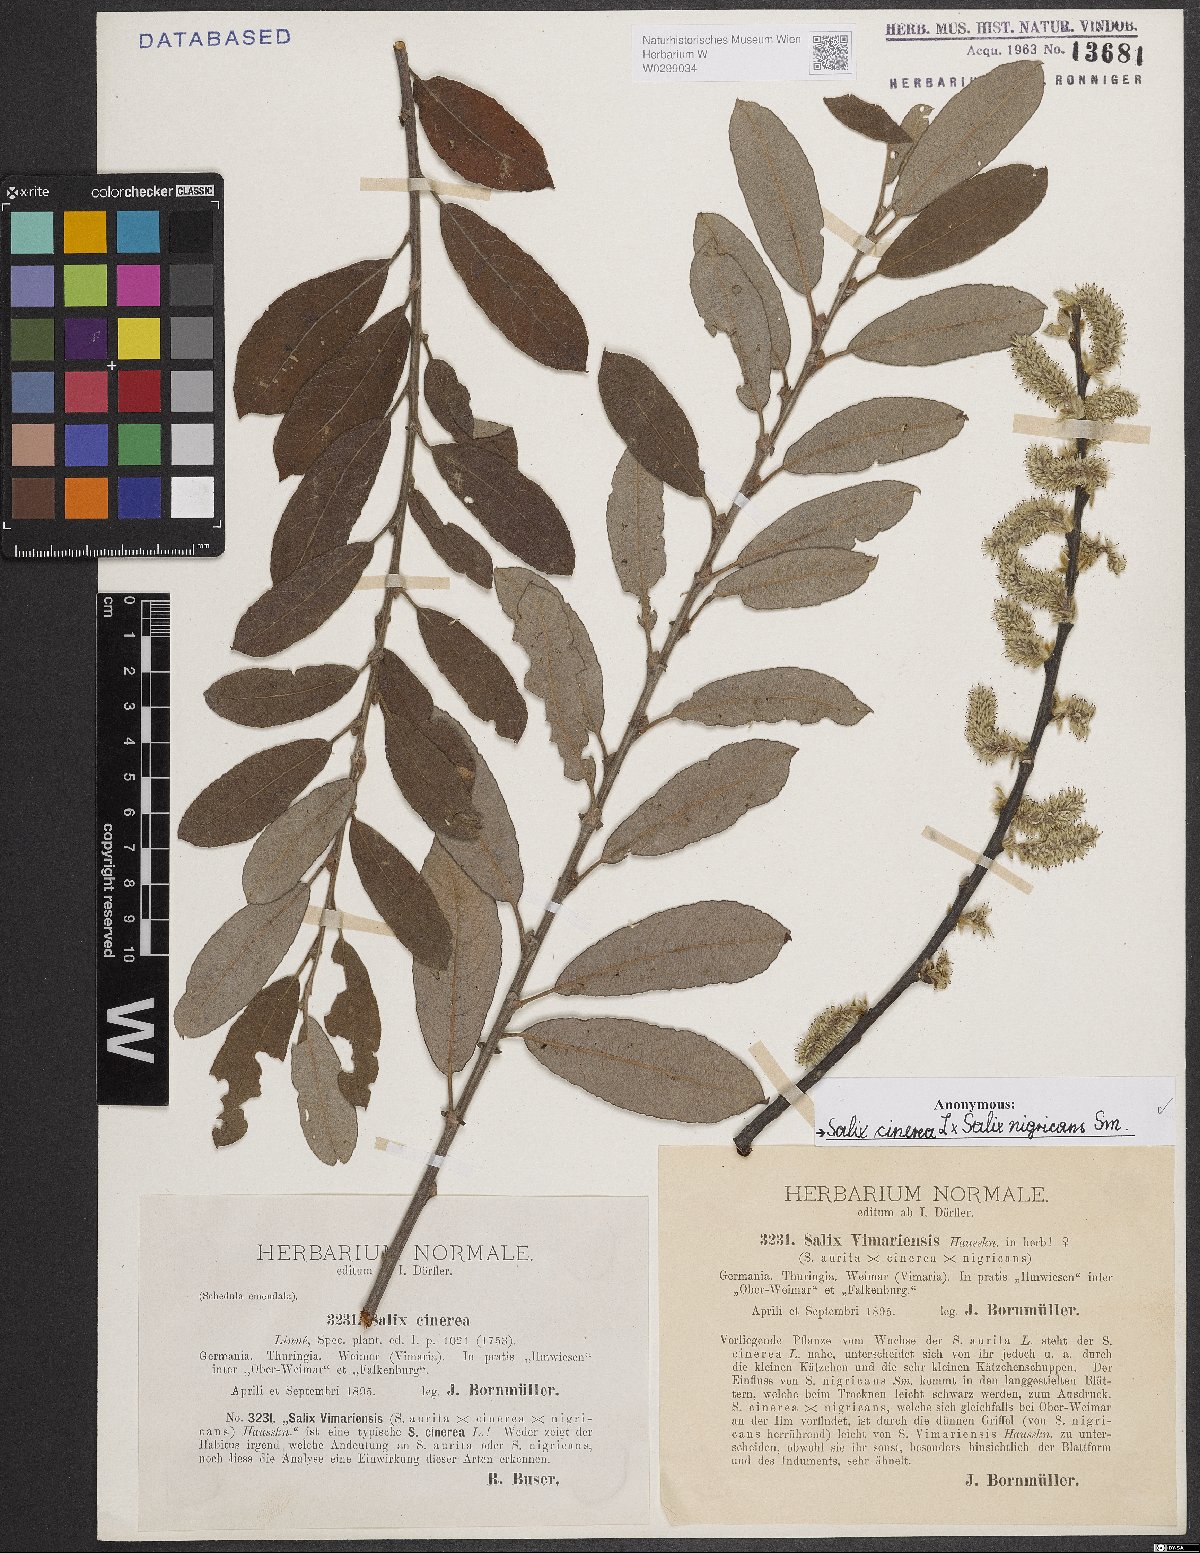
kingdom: Plantae
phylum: Tracheophyta
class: Magnoliopsida
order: Malpighiales
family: Salicaceae
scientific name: Salicaceae
